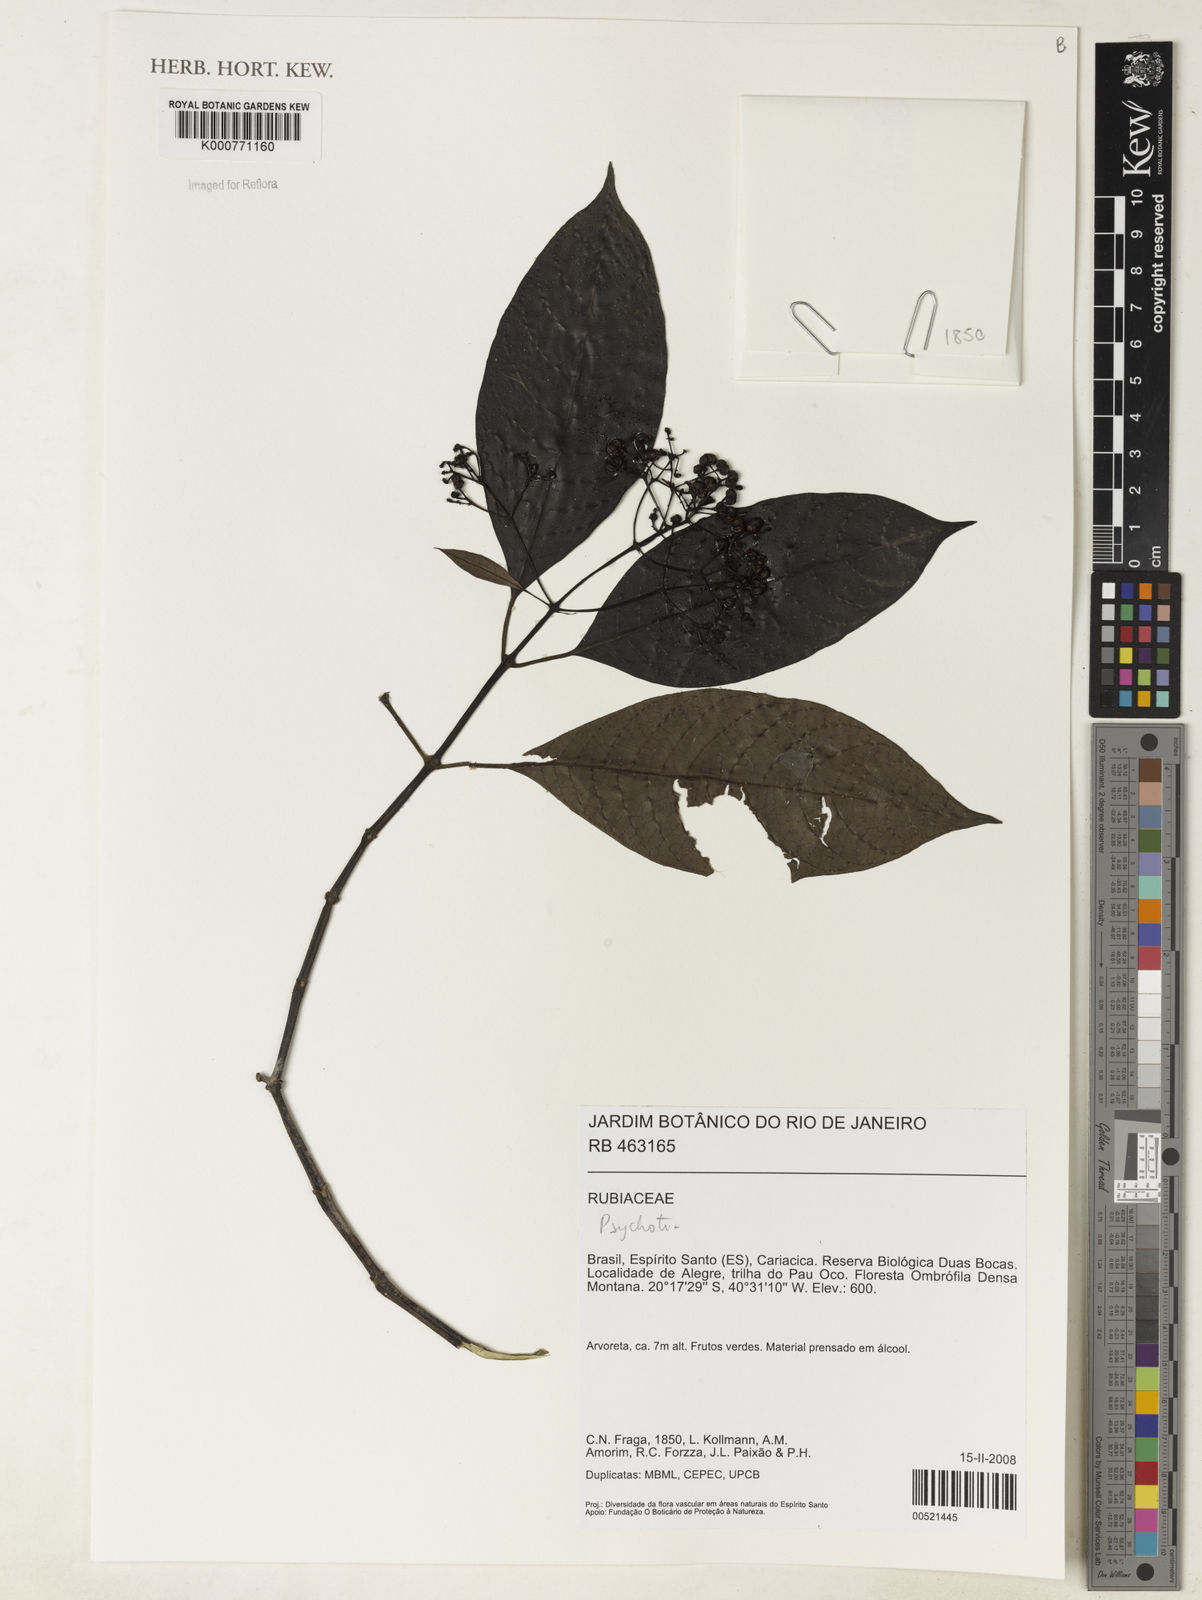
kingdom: Plantae
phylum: Tracheophyta
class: Magnoliopsida
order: Gentianales
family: Rubiaceae
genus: Psychotria
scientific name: Psychotria
